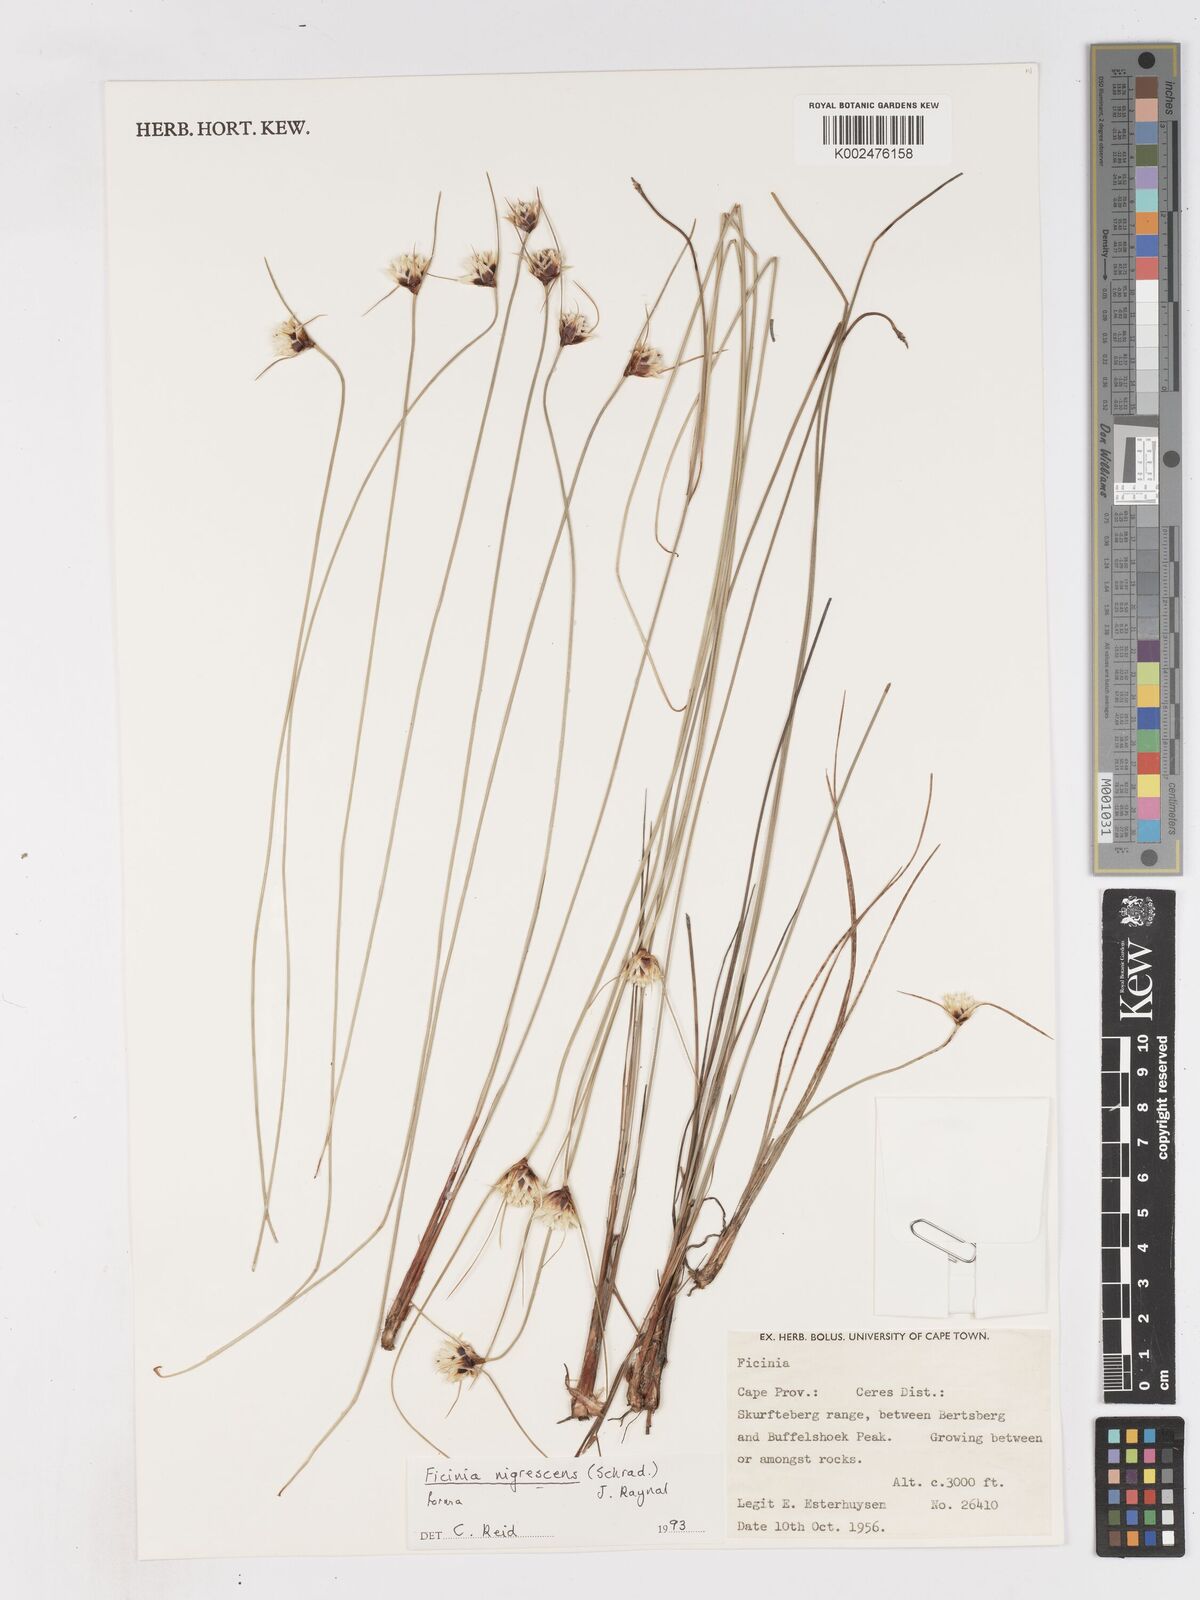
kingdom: Plantae
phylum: Tracheophyta
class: Liliopsida
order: Poales
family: Cyperaceae
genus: Ficinia
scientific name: Ficinia nigrescens
